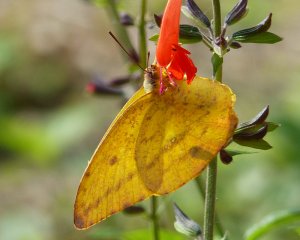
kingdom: Animalia
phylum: Arthropoda
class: Insecta
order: Lepidoptera
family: Pieridae
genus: Phoebis
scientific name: Phoebis agarithe
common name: Large Orange Sulphur
